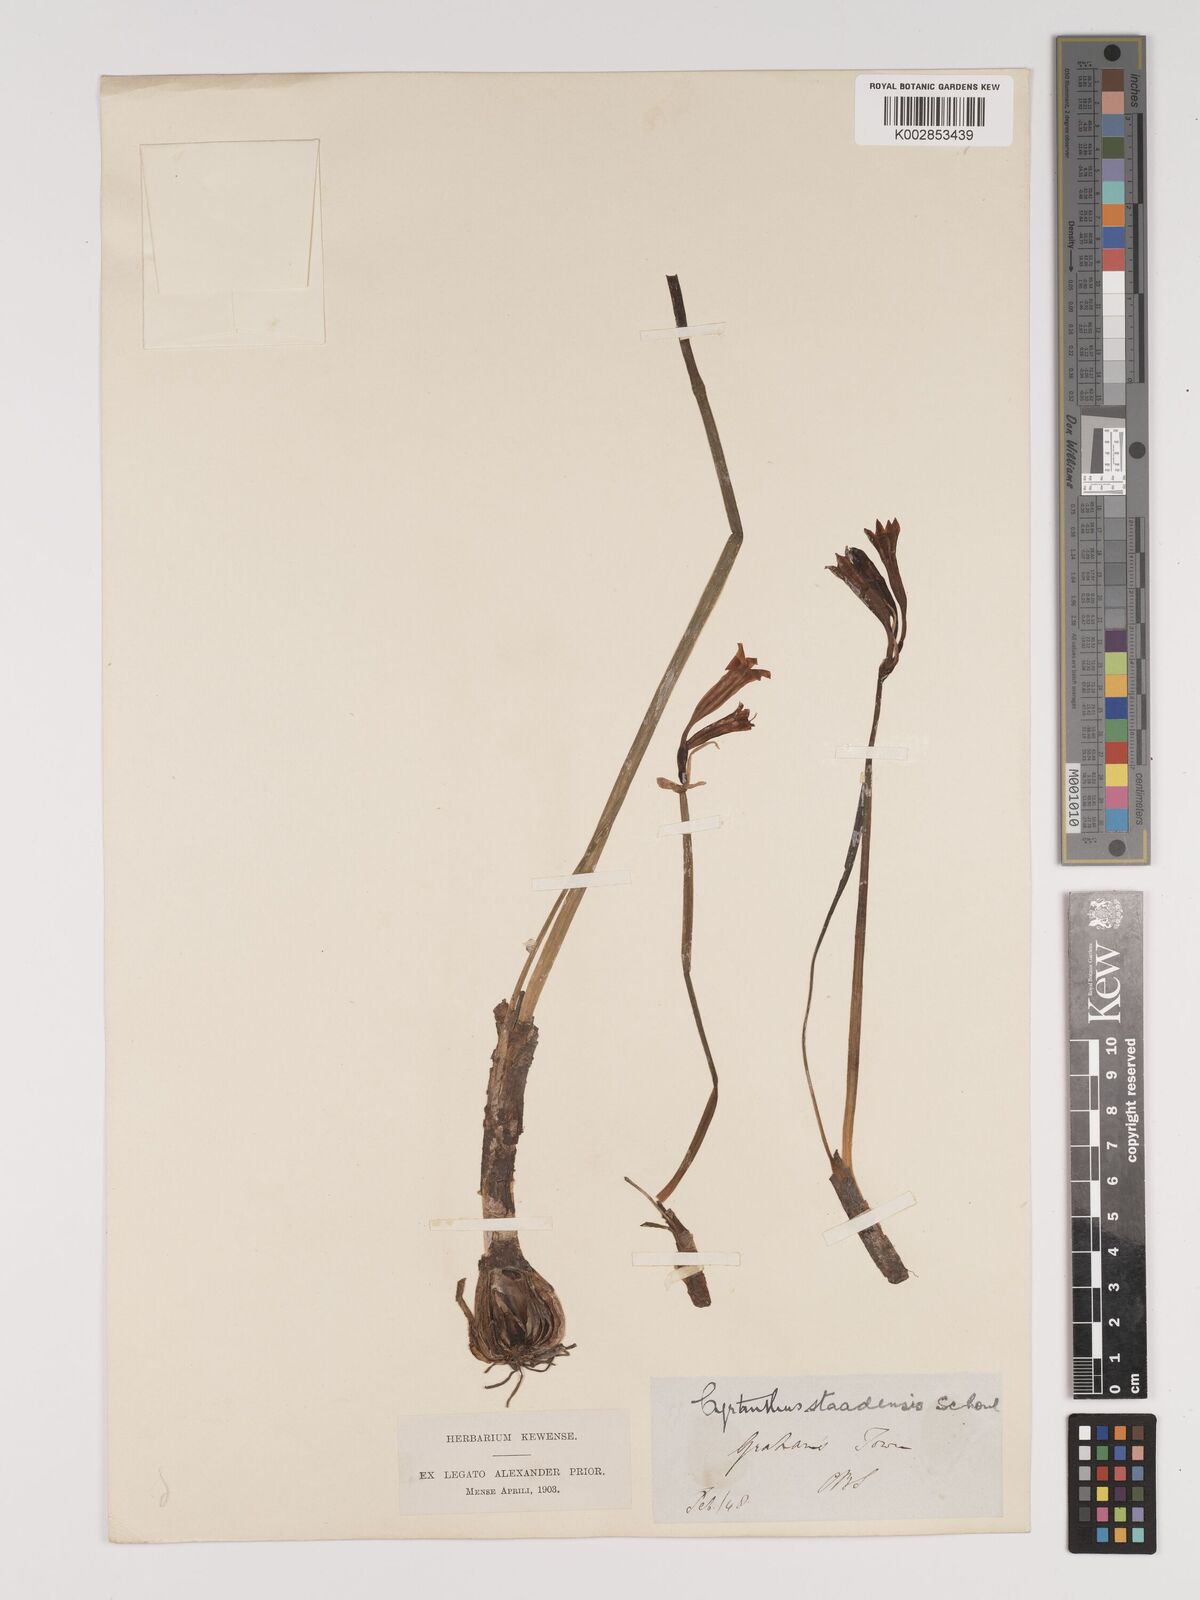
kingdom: Plantae
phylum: Tracheophyta
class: Liliopsida
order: Asparagales
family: Amaryllidaceae
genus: Cyrtanthus
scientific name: Cyrtanthus staadensis
